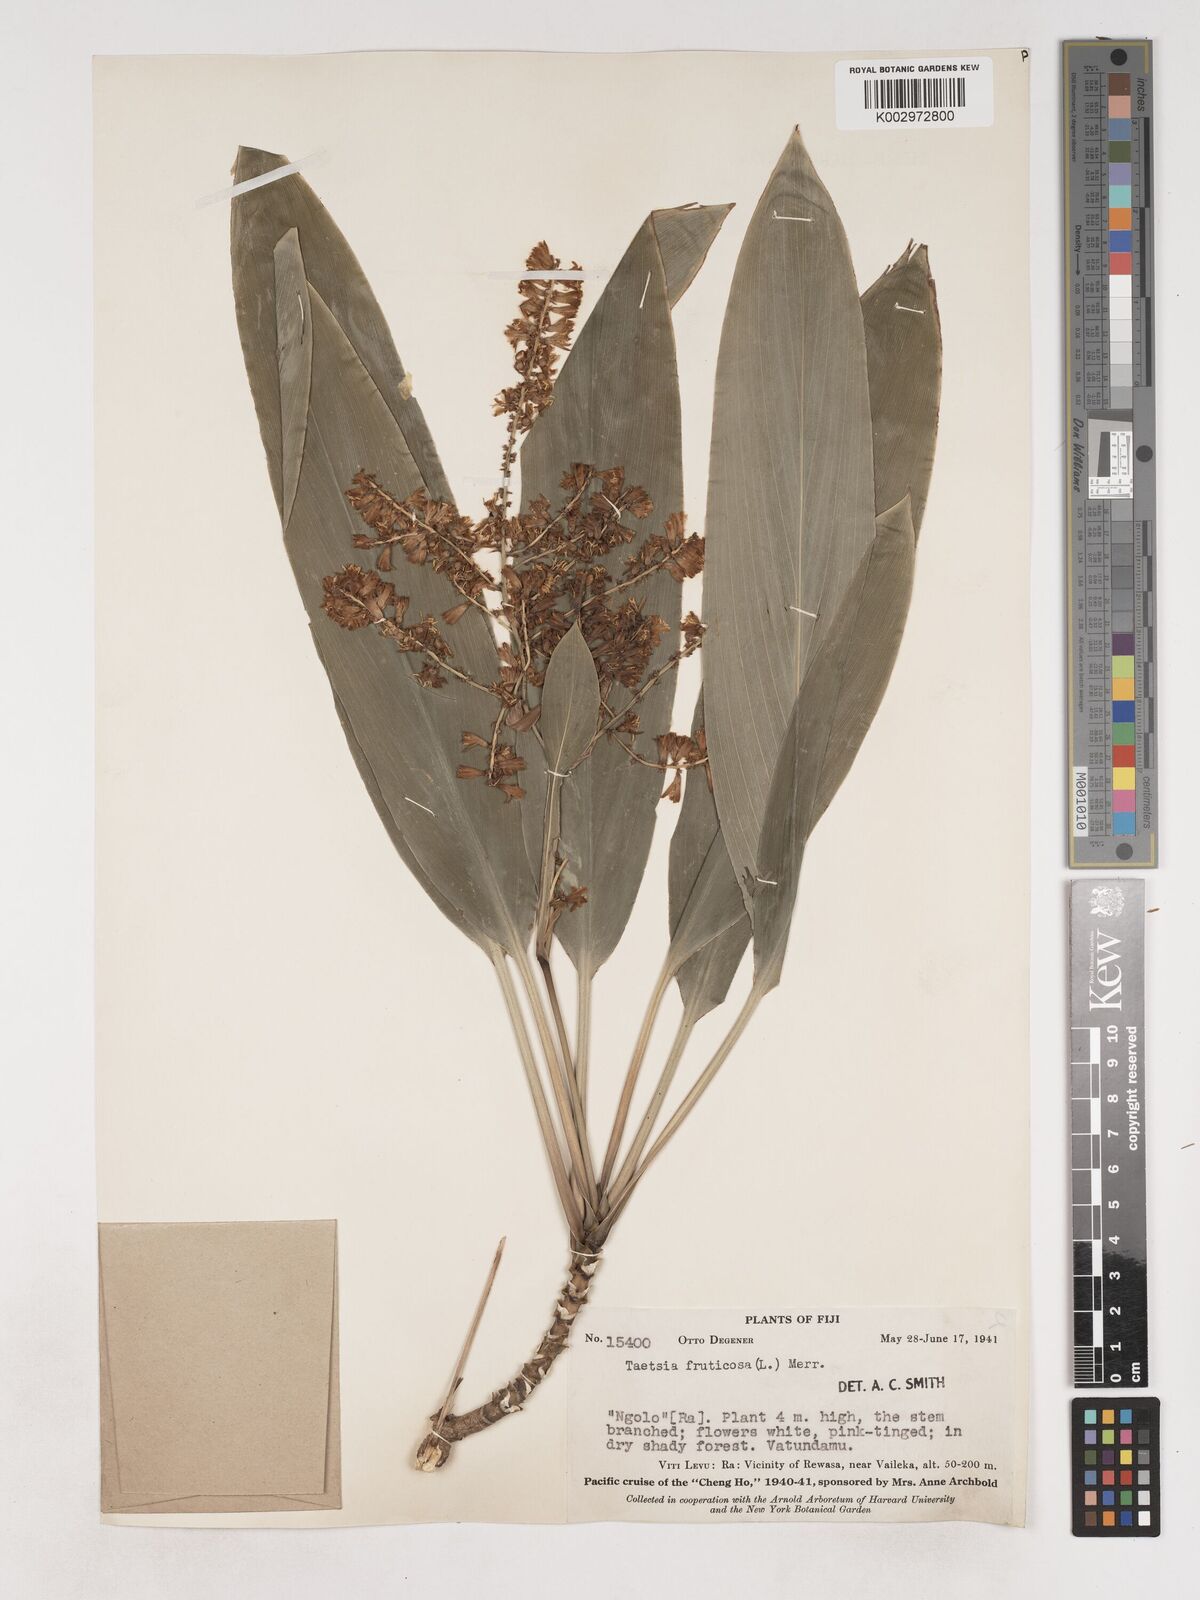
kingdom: Plantae
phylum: Tracheophyta
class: Liliopsida
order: Asparagales
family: Asparagaceae
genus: Cordyline
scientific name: Cordyline fruticosa
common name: Good-luck-plant
